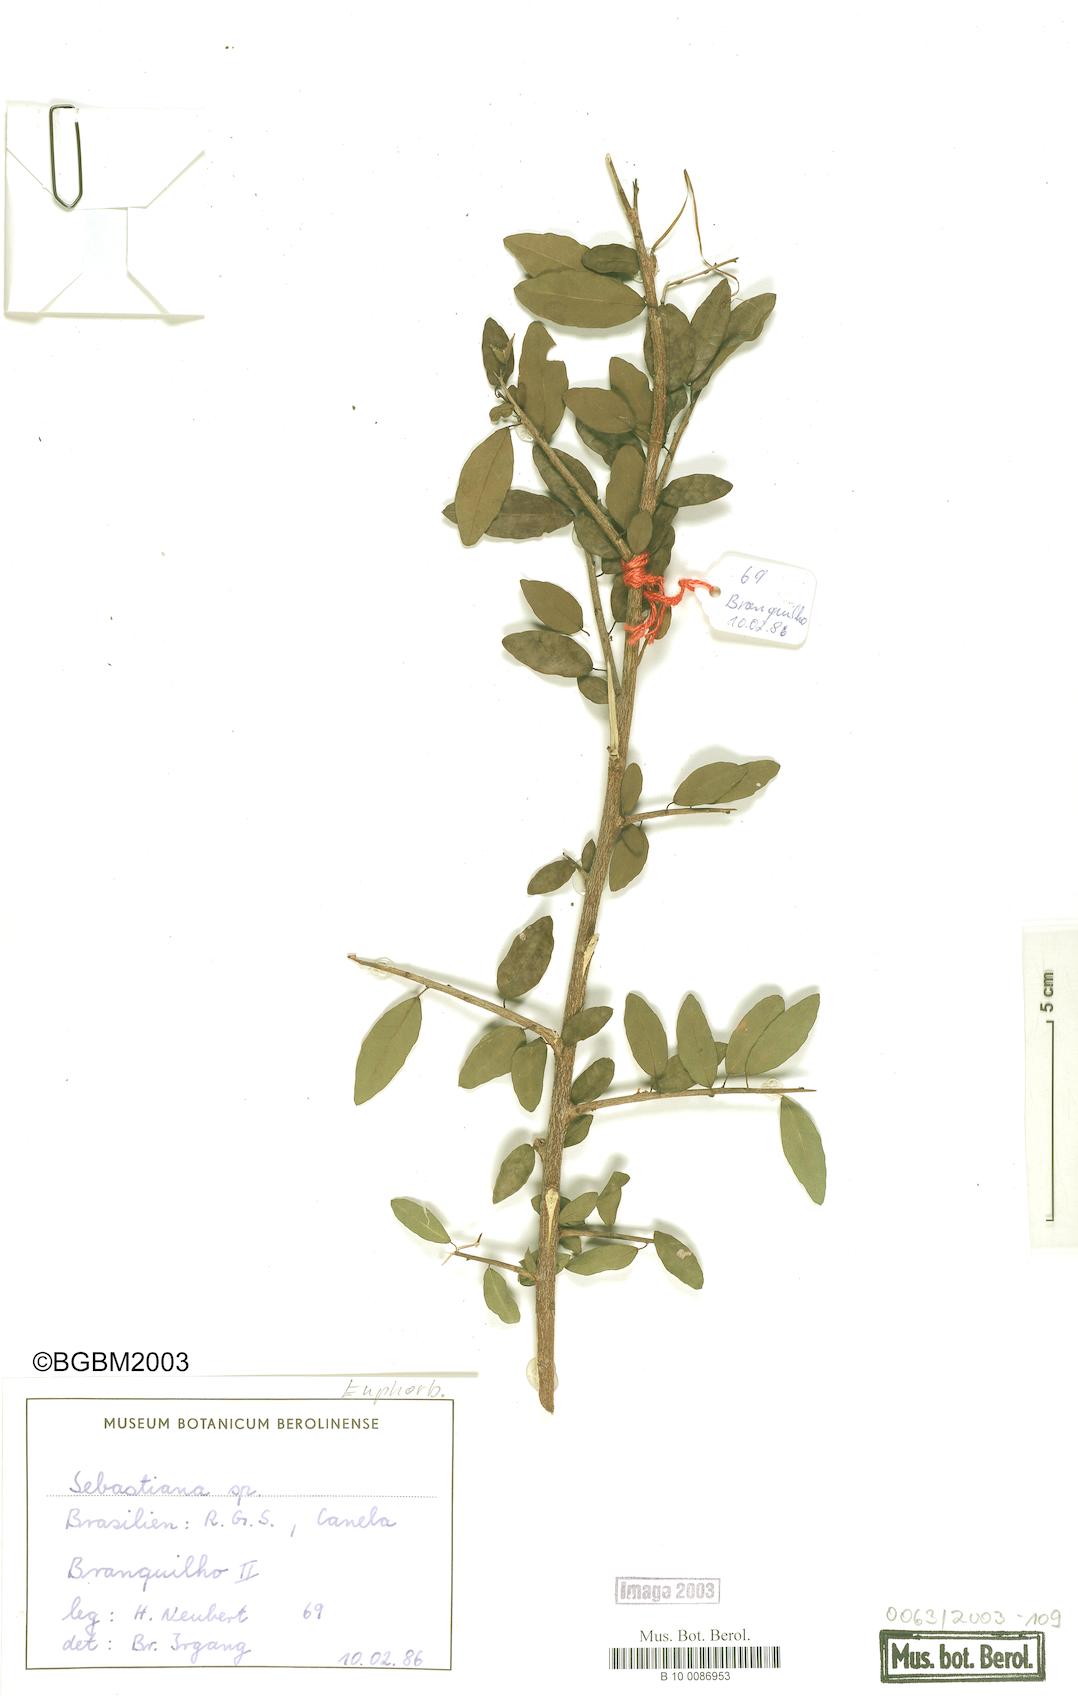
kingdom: Plantae
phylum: Tracheophyta
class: Magnoliopsida
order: Malpighiales
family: Euphorbiaceae
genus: Sebastiania
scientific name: Sebastiania klotzschiana
